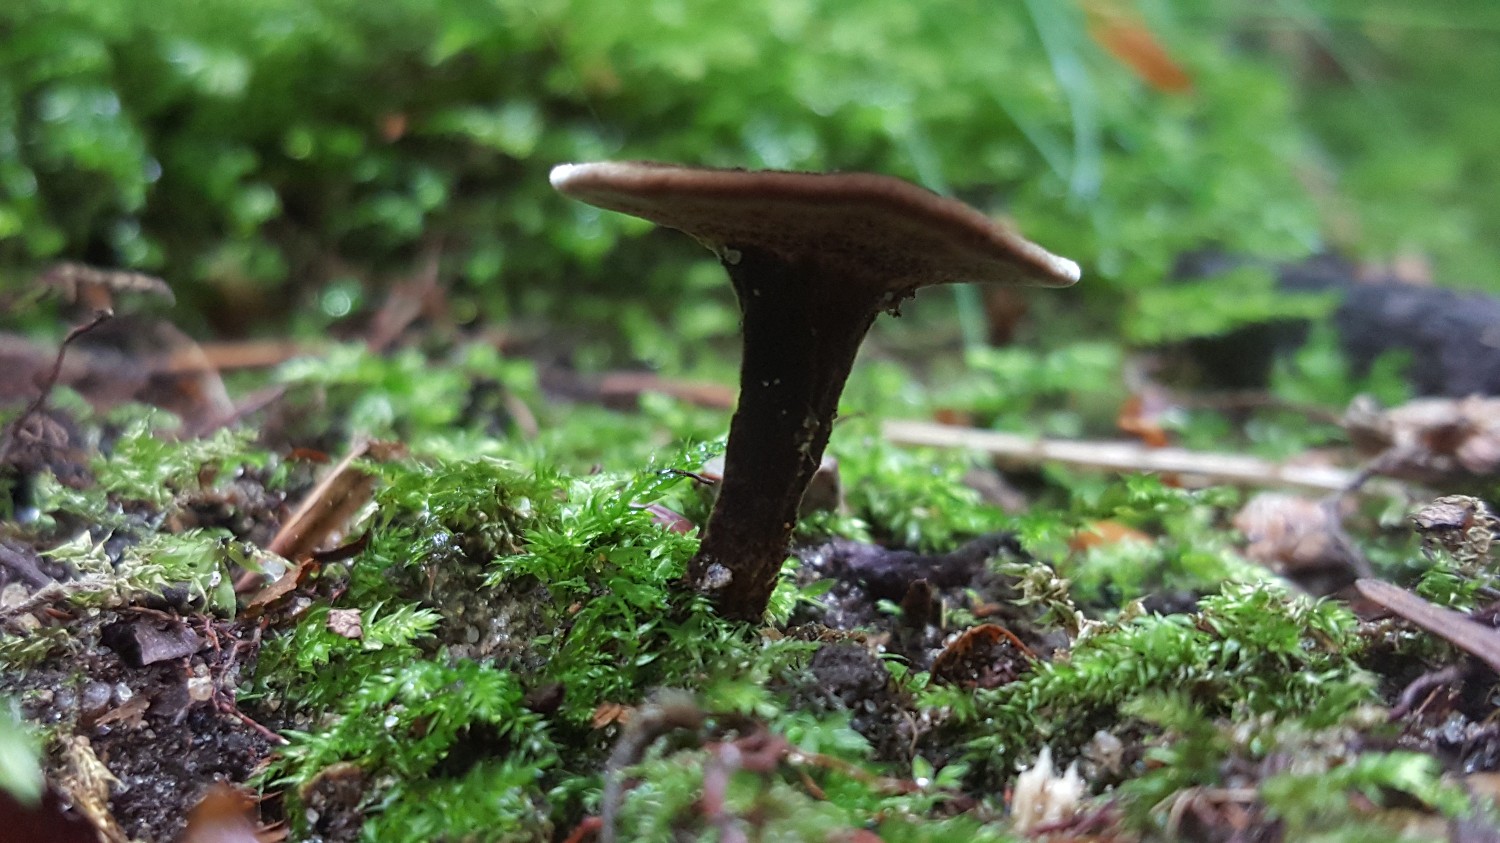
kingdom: Fungi
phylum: Basidiomycota
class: Agaricomycetes
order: Hymenochaetales
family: Hymenochaetaceae
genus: Coltricia
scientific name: Coltricia perennis
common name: almindelig sandporesvamp
